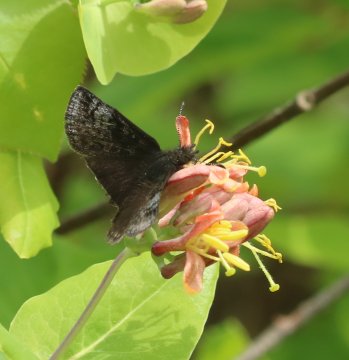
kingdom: Animalia
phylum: Arthropoda
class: Insecta
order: Lepidoptera
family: Hesperiidae
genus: Erynnis
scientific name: Erynnis icelus
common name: Dreamy Duskywing
